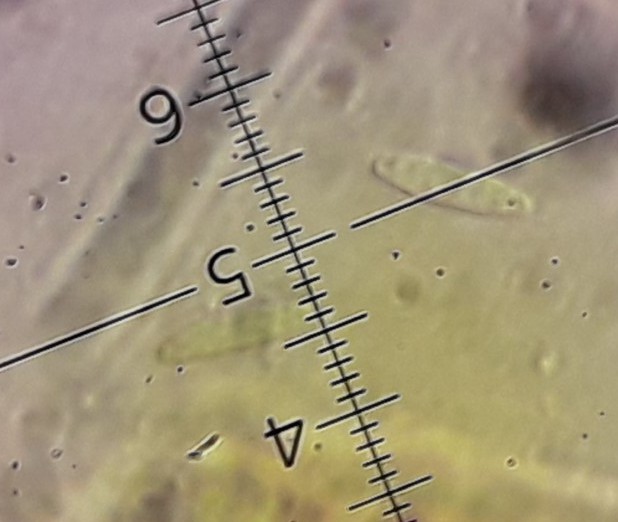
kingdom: Fungi
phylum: Ascomycota
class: Leotiomycetes
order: Helotiales
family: Lachnaceae
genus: Lachnum
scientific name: Lachnum virgineum
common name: jomfru-frynseskive
